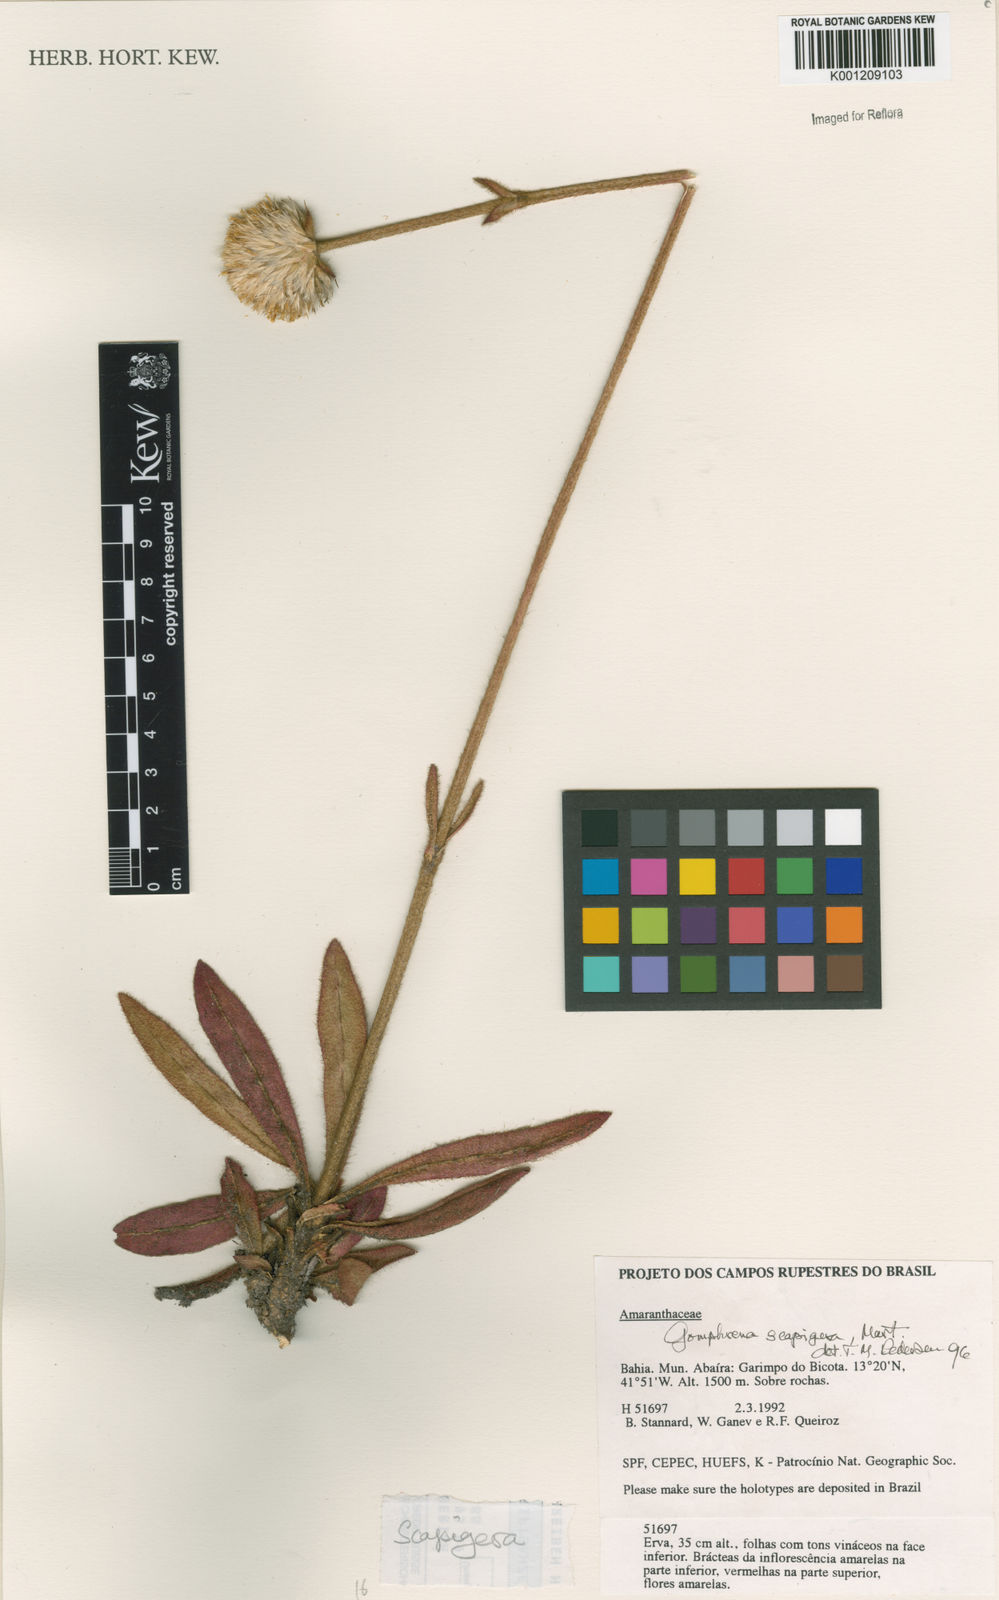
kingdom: Plantae
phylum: Tracheophyta
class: Magnoliopsida
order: Caryophyllales
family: Amaranthaceae
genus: Gomphrena
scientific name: Gomphrena scapigera
